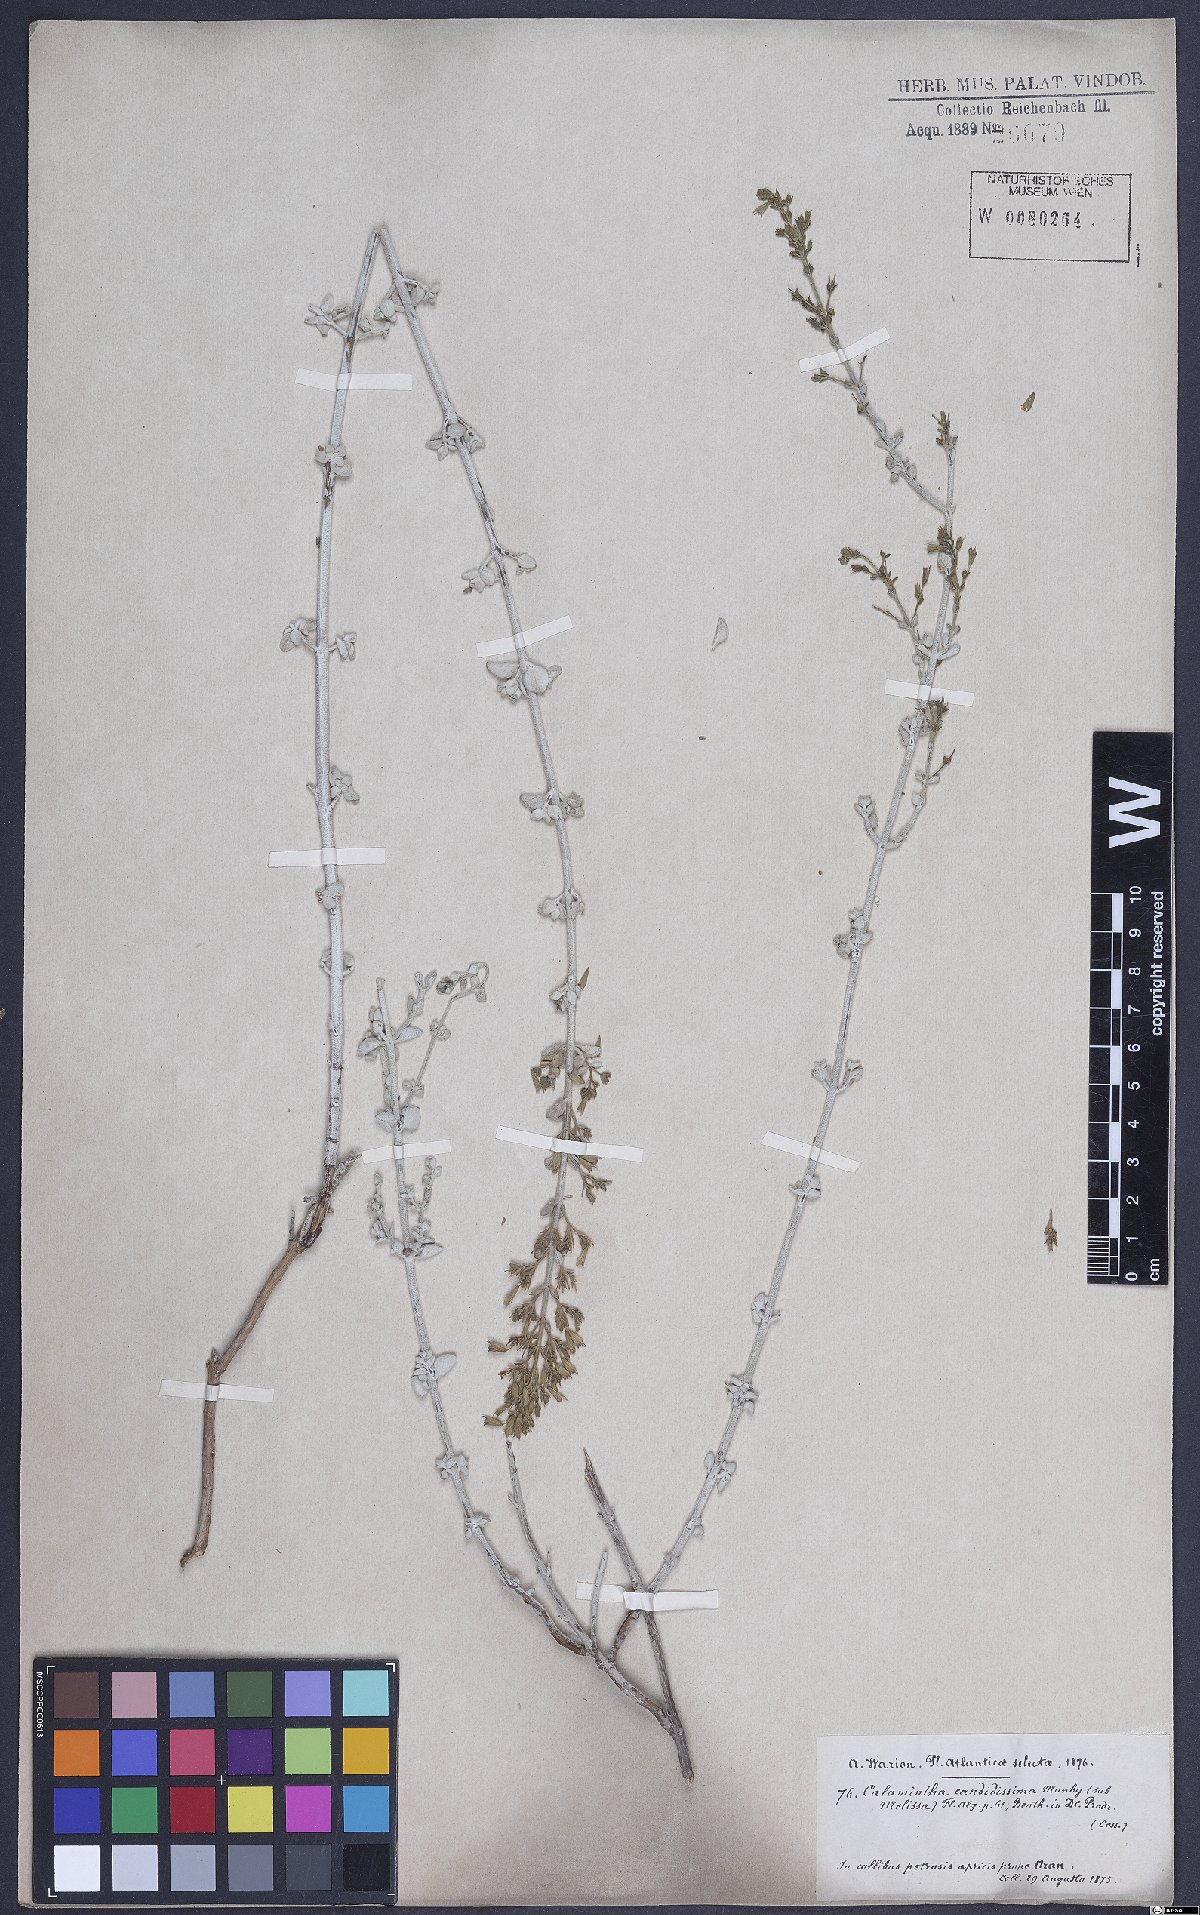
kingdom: Plantae
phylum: Tracheophyta
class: Magnoliopsida
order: Lamiales
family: Lamiaceae
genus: Calamintha
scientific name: Calamintha
